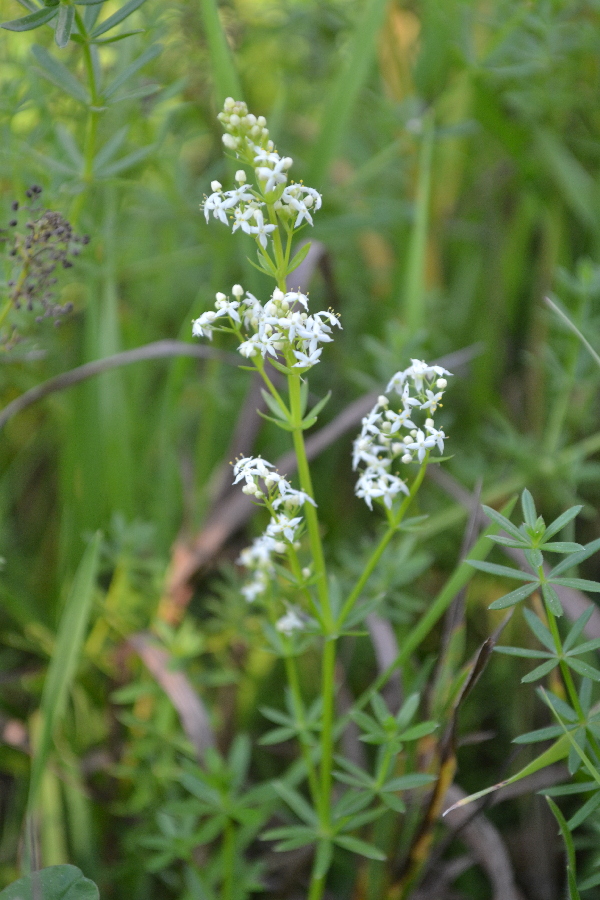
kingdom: Plantae
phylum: Tracheophyta
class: Magnoliopsida
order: Gentianales
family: Rubiaceae
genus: Galium
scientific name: Galium mollugo
